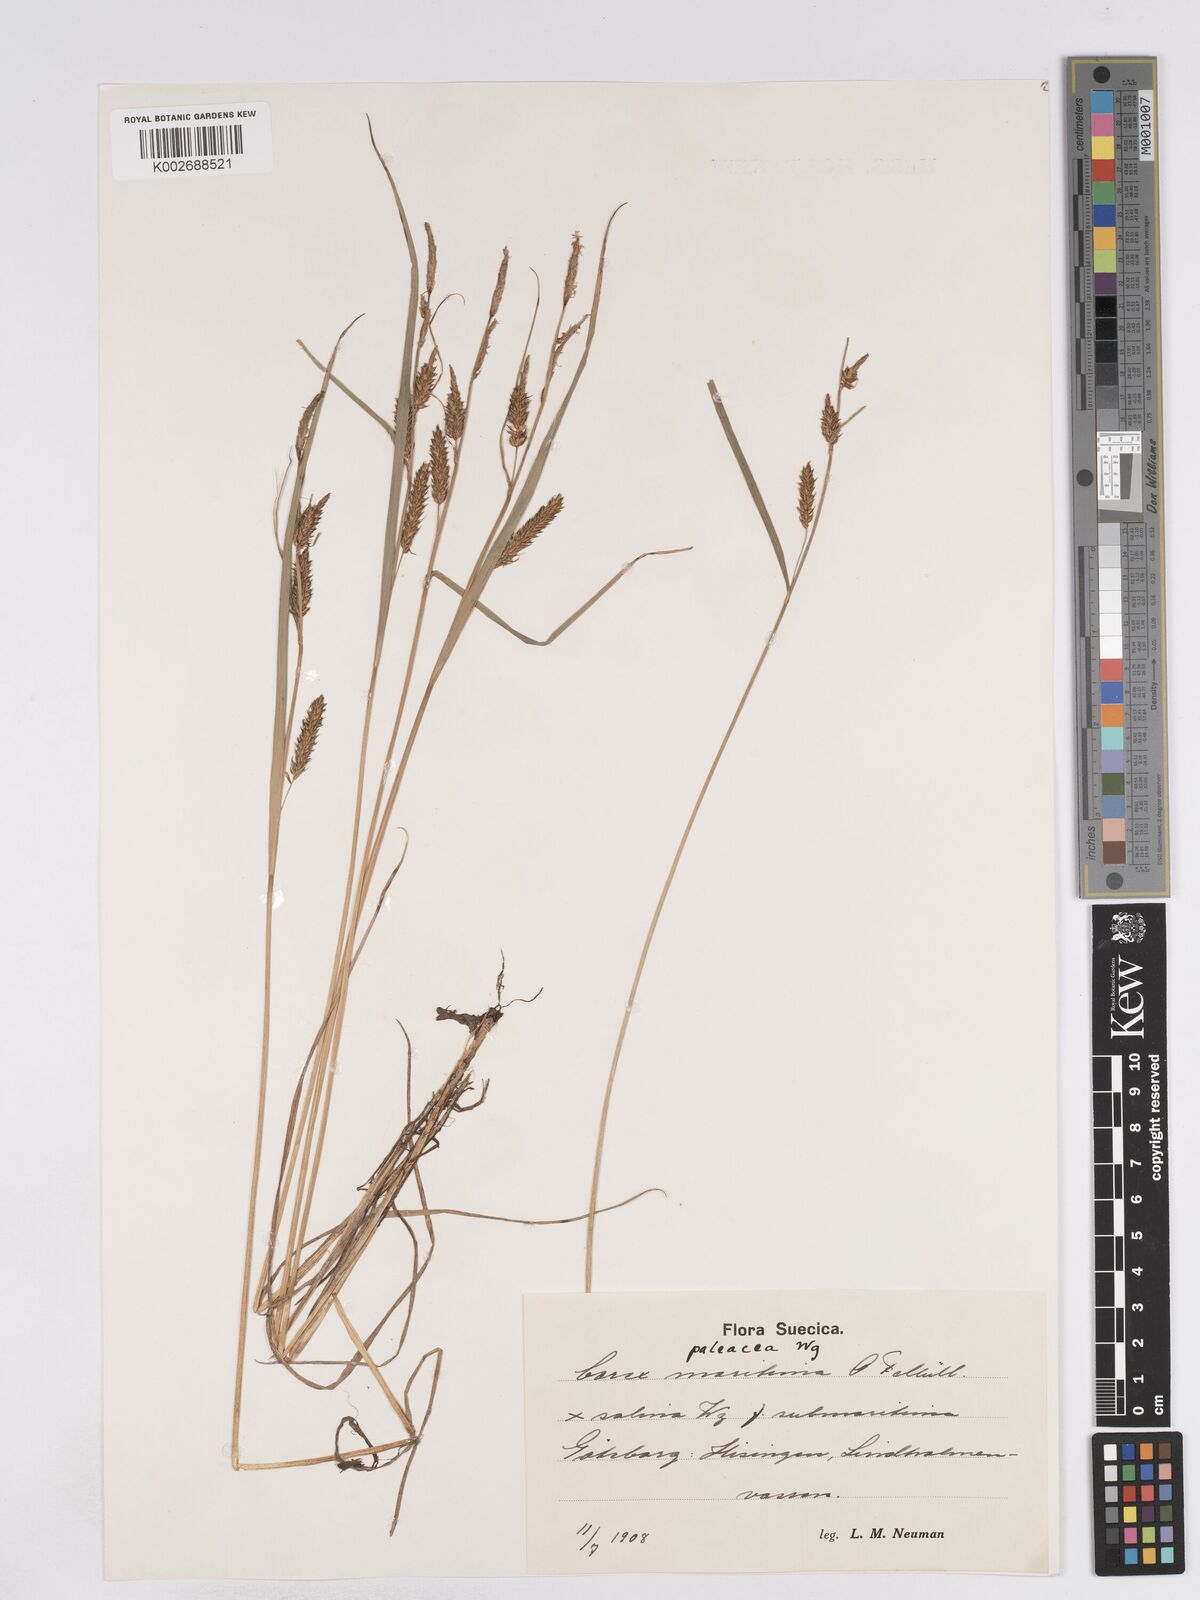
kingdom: Plantae
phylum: Tracheophyta
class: Liliopsida
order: Poales
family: Cyperaceae
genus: Carex
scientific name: Carex recta
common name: Estuarine sedge
